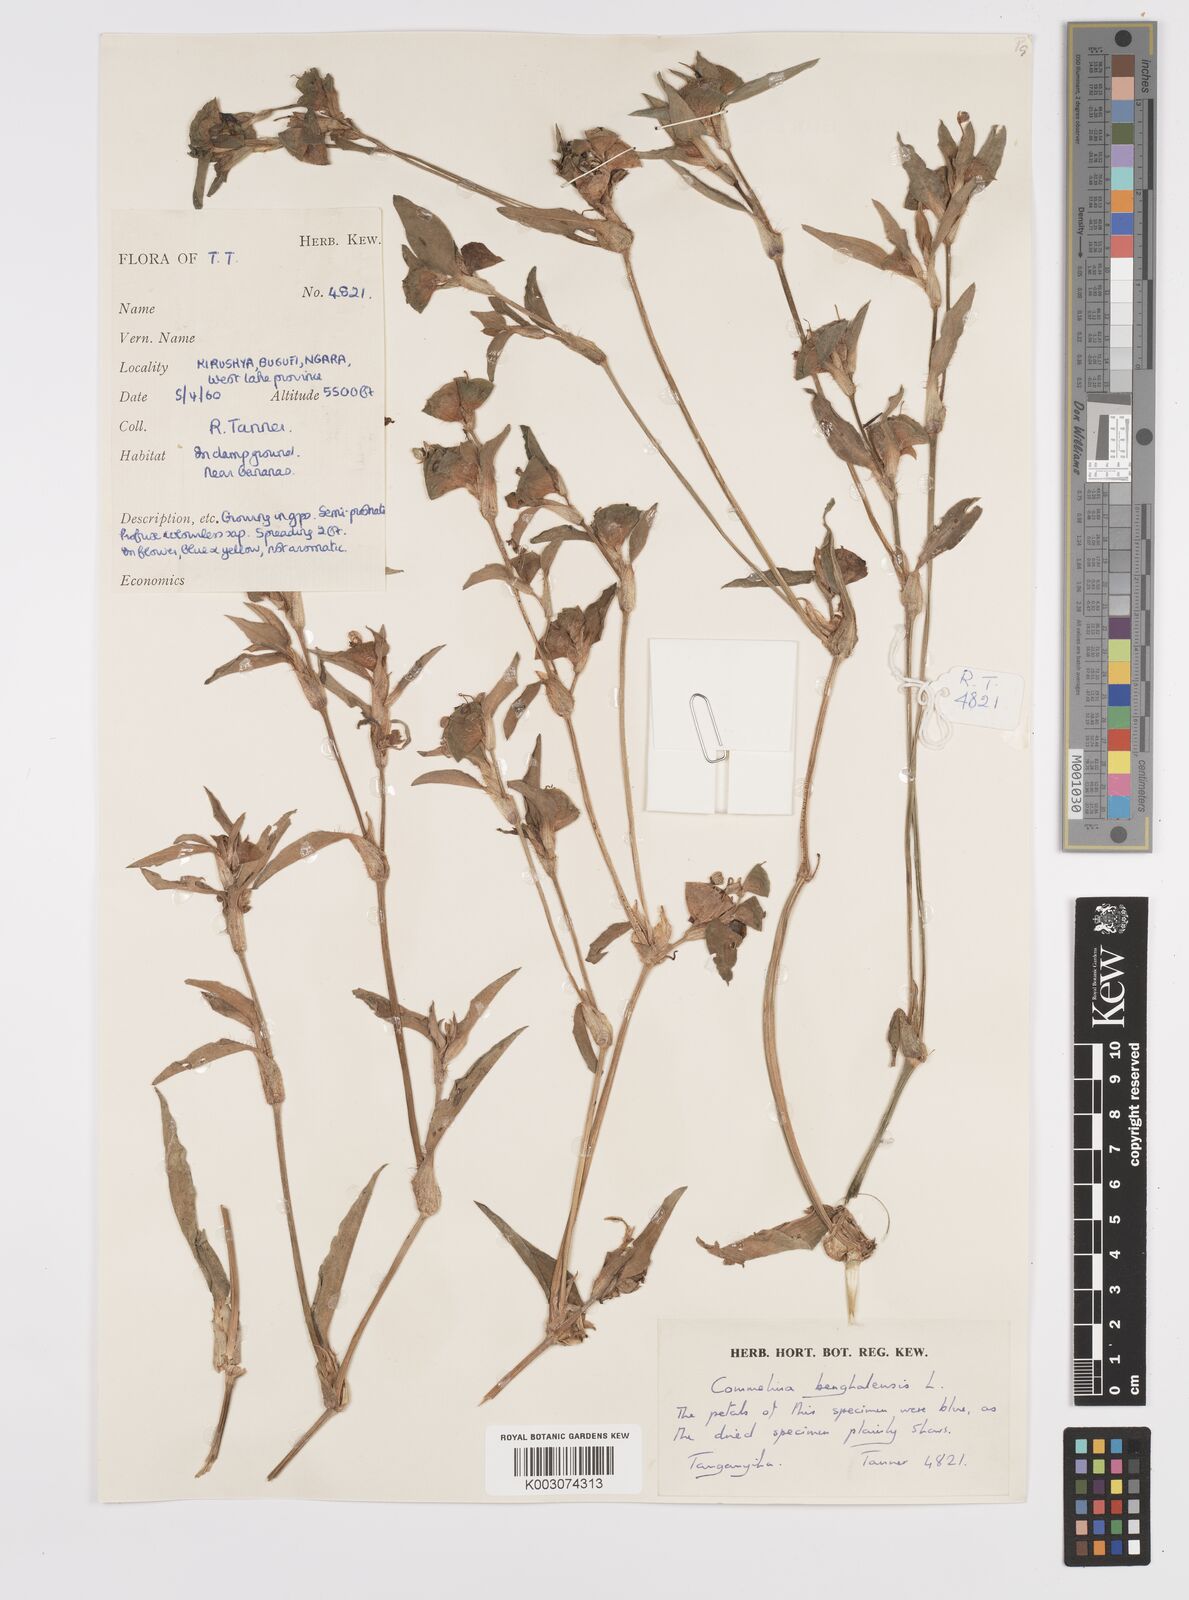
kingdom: Plantae
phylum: Tracheophyta
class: Liliopsida
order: Commelinales
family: Commelinaceae
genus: Commelina
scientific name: Commelina benghalensis
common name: Jio
